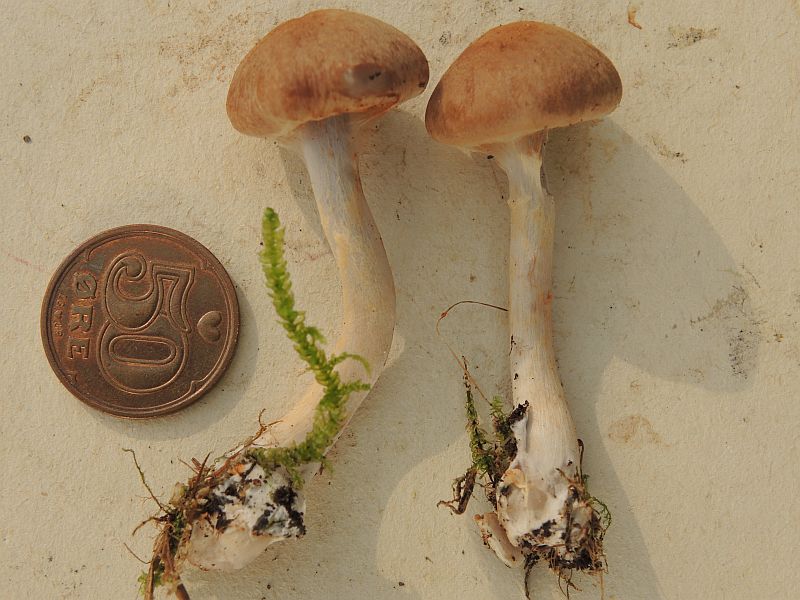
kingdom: Fungi
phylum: Basidiomycota
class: Agaricomycetes
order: Agaricales
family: Cortinariaceae
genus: Cortinarius
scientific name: Cortinarius anomalus
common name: Variable webcap
